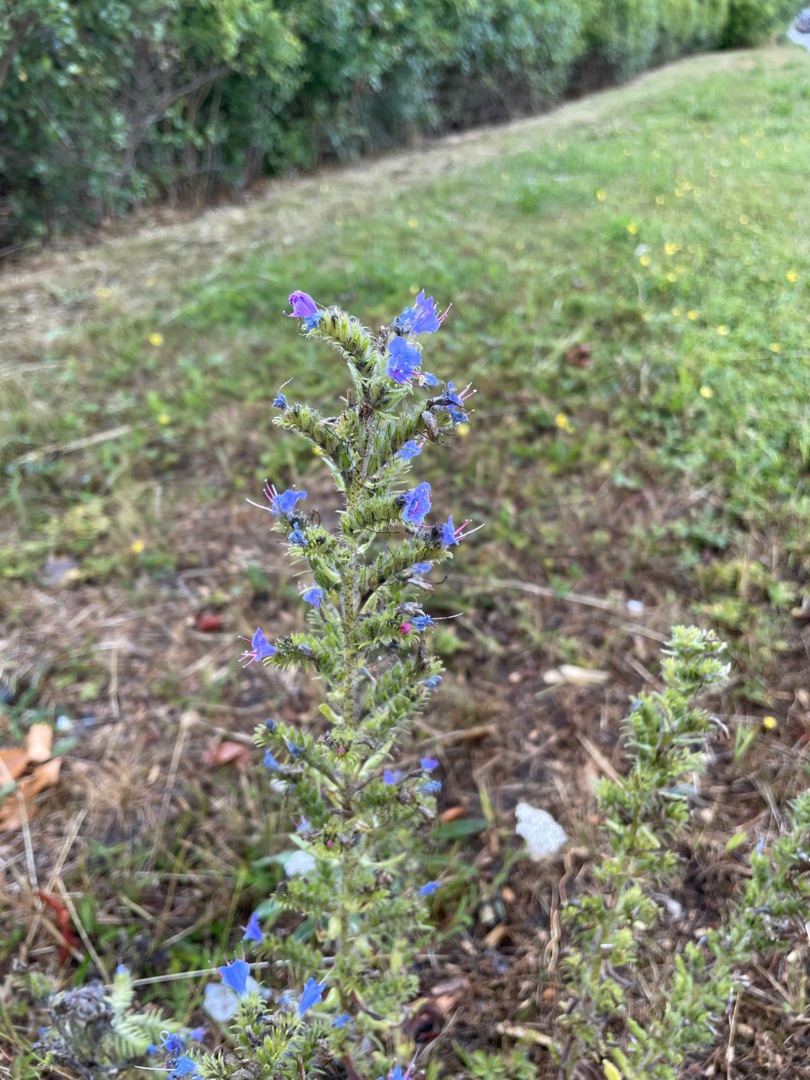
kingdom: Plantae
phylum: Tracheophyta
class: Magnoliopsida
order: Boraginales
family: Boraginaceae
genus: Echium
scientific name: Echium vulgare
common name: Slangehoved
